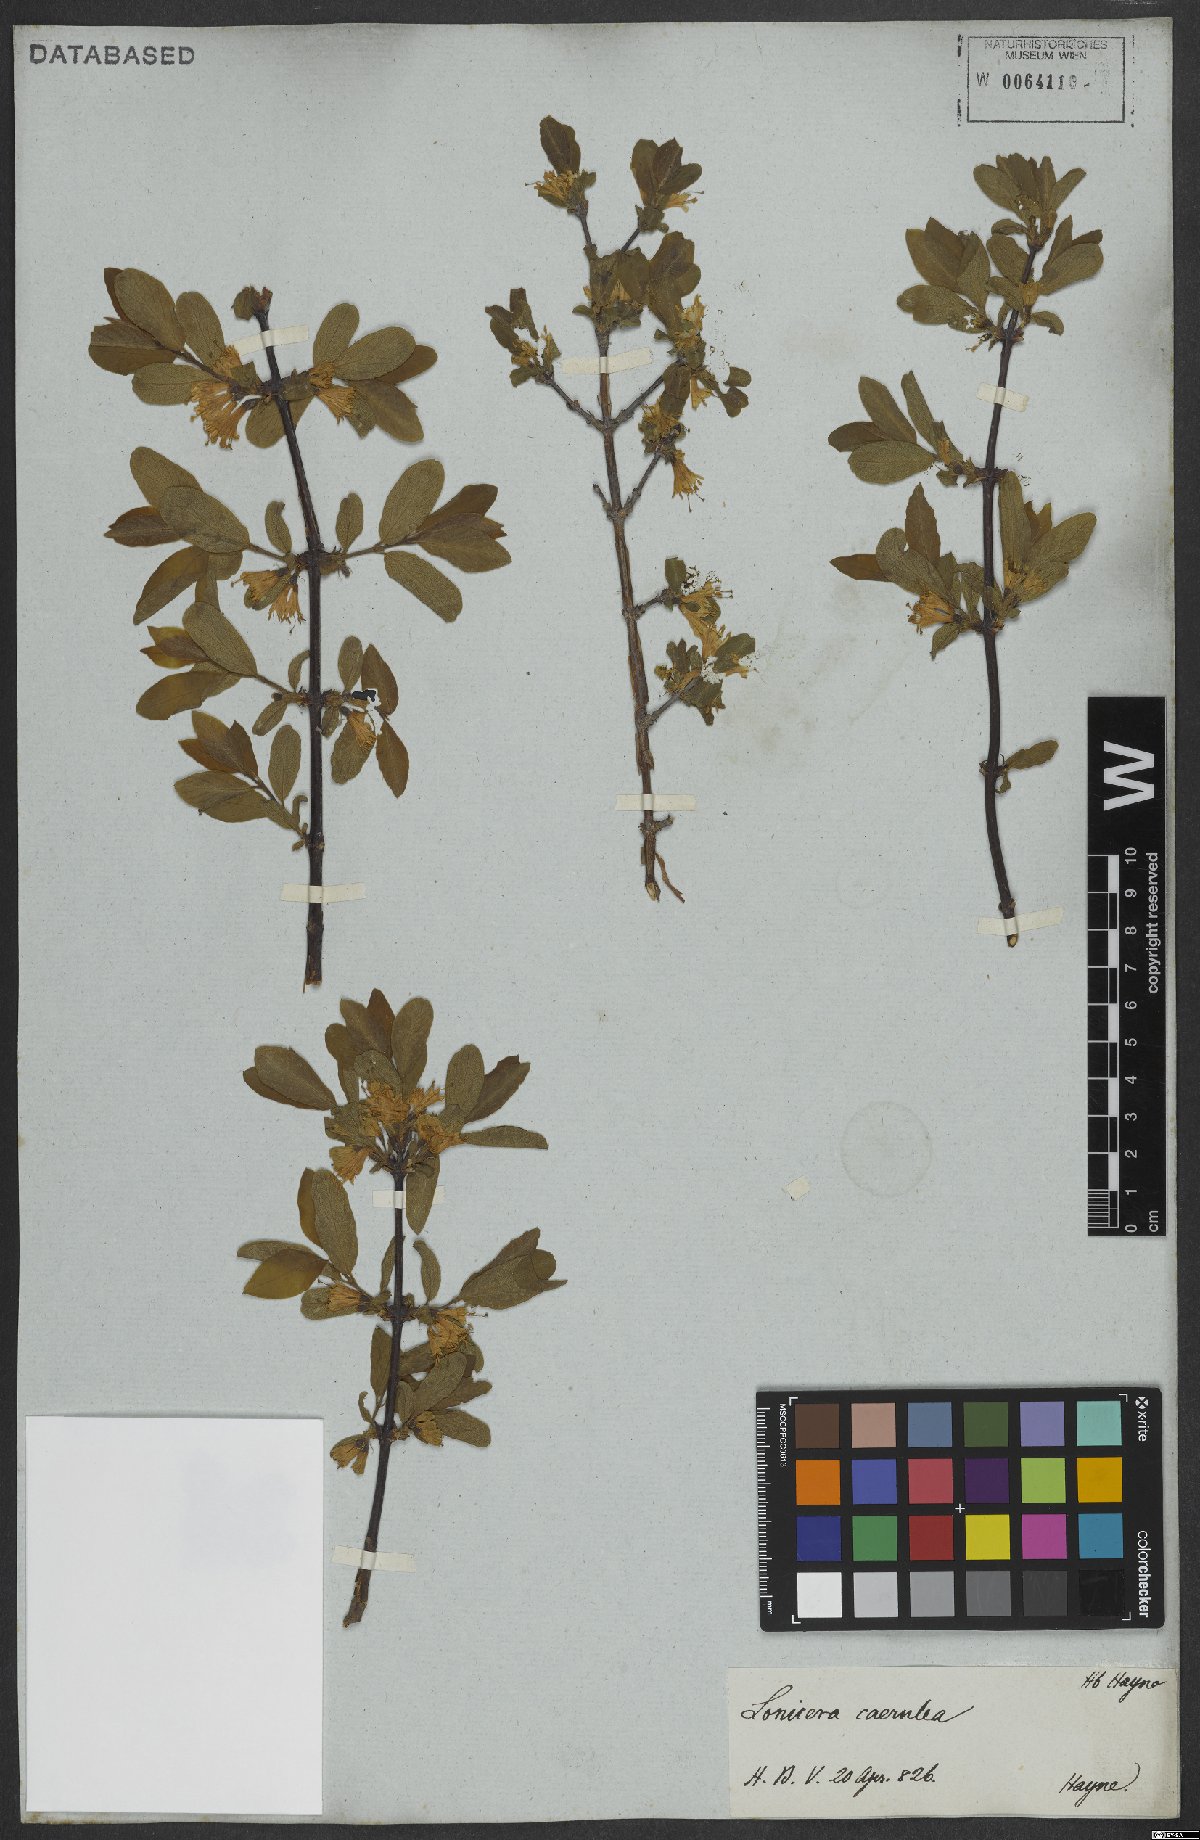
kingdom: Plantae
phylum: Tracheophyta
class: Magnoliopsida
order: Dipsacales
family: Caprifoliaceae
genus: Lonicera
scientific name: Lonicera caerulea
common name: Blue honeysuckle
